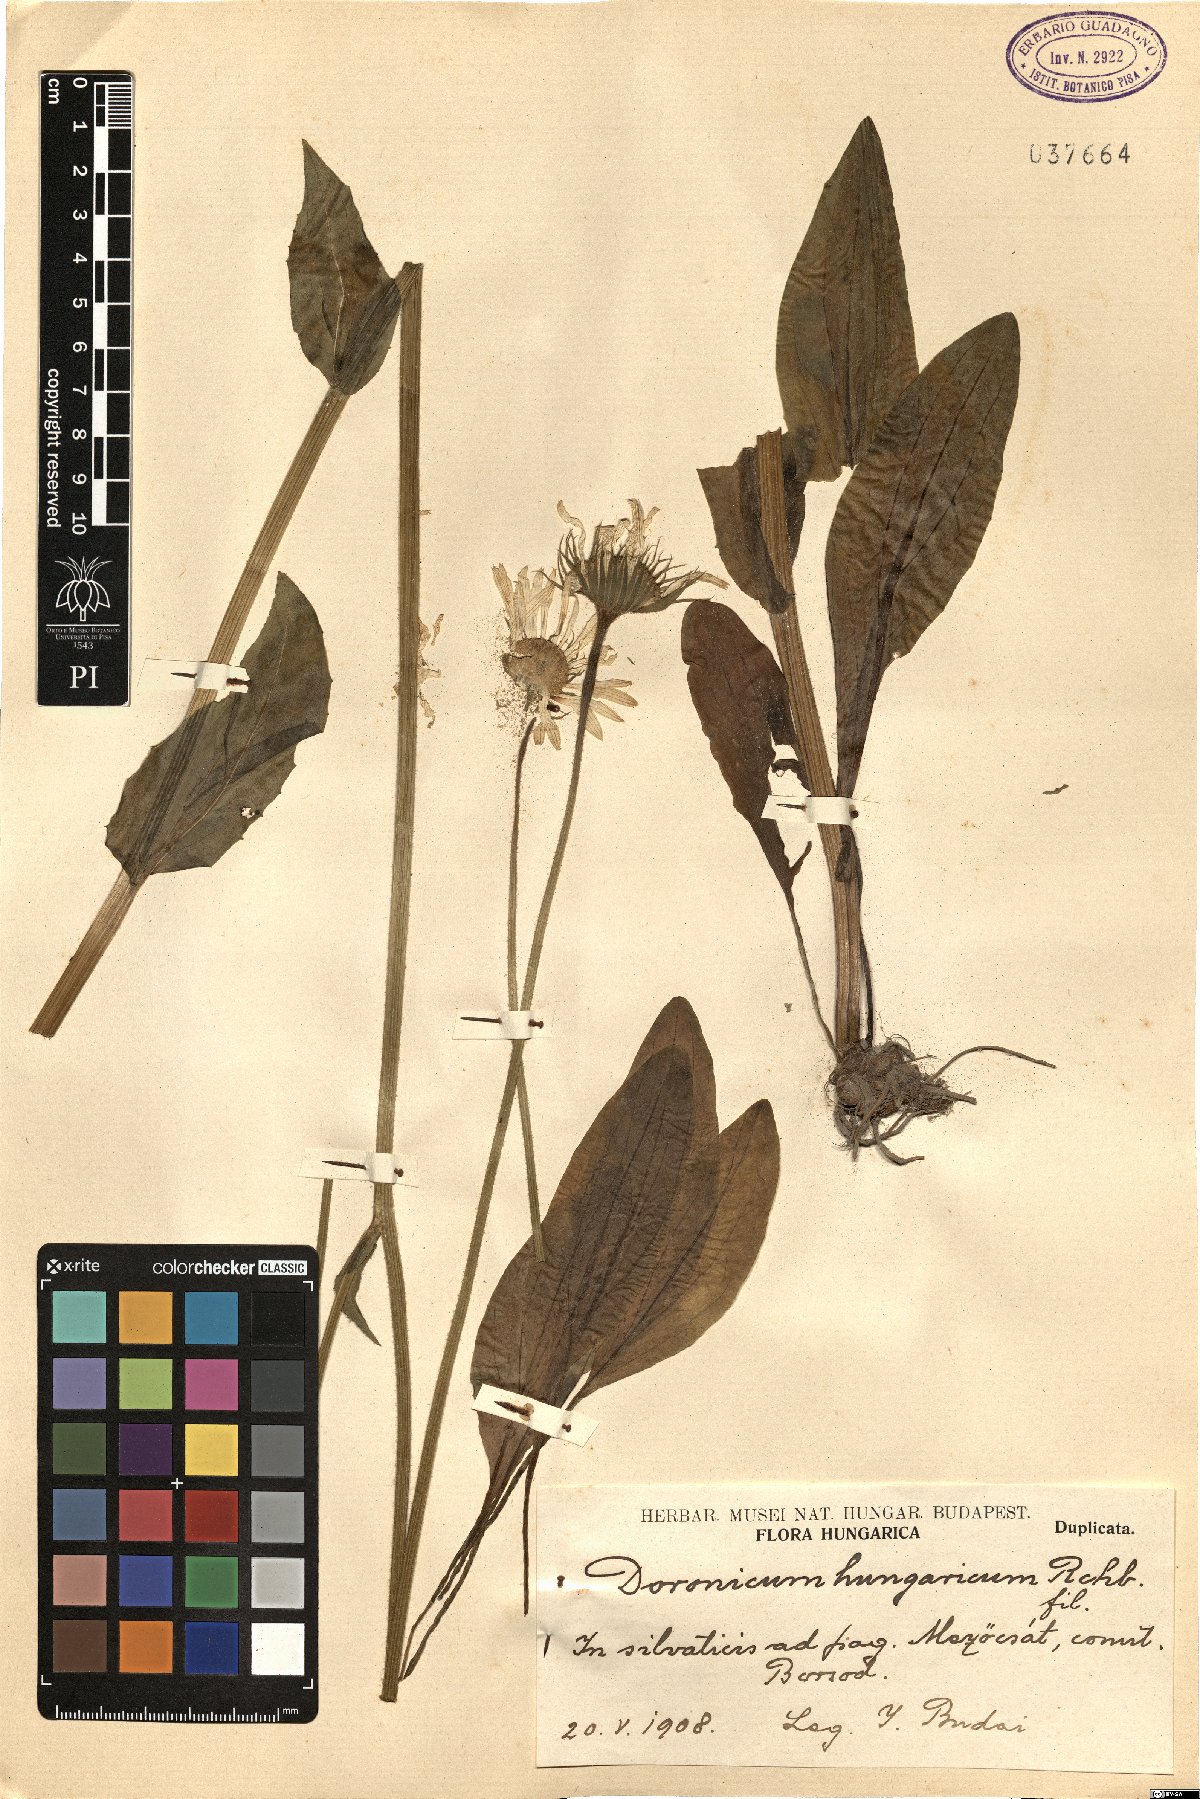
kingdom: Plantae
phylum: Tracheophyta
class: Magnoliopsida
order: Asterales
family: Asteraceae
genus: Doronicum
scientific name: Doronicum hungaricum
